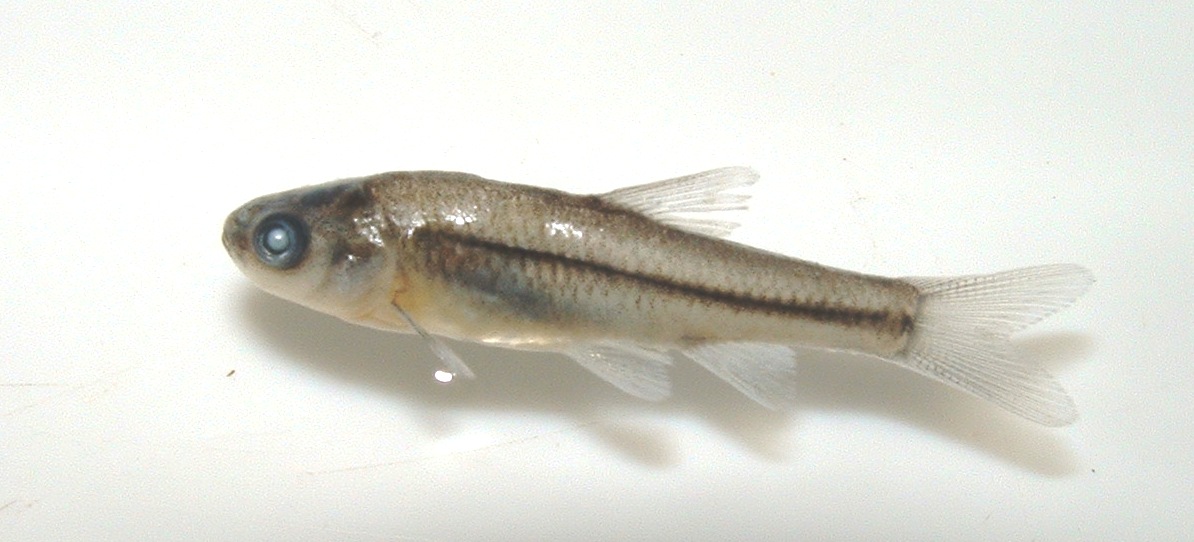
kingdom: Animalia
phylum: Chordata
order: Cypriniformes
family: Cyprinidae
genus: Enteromius
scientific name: Enteromius anoplus
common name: Chubbyhead barb
